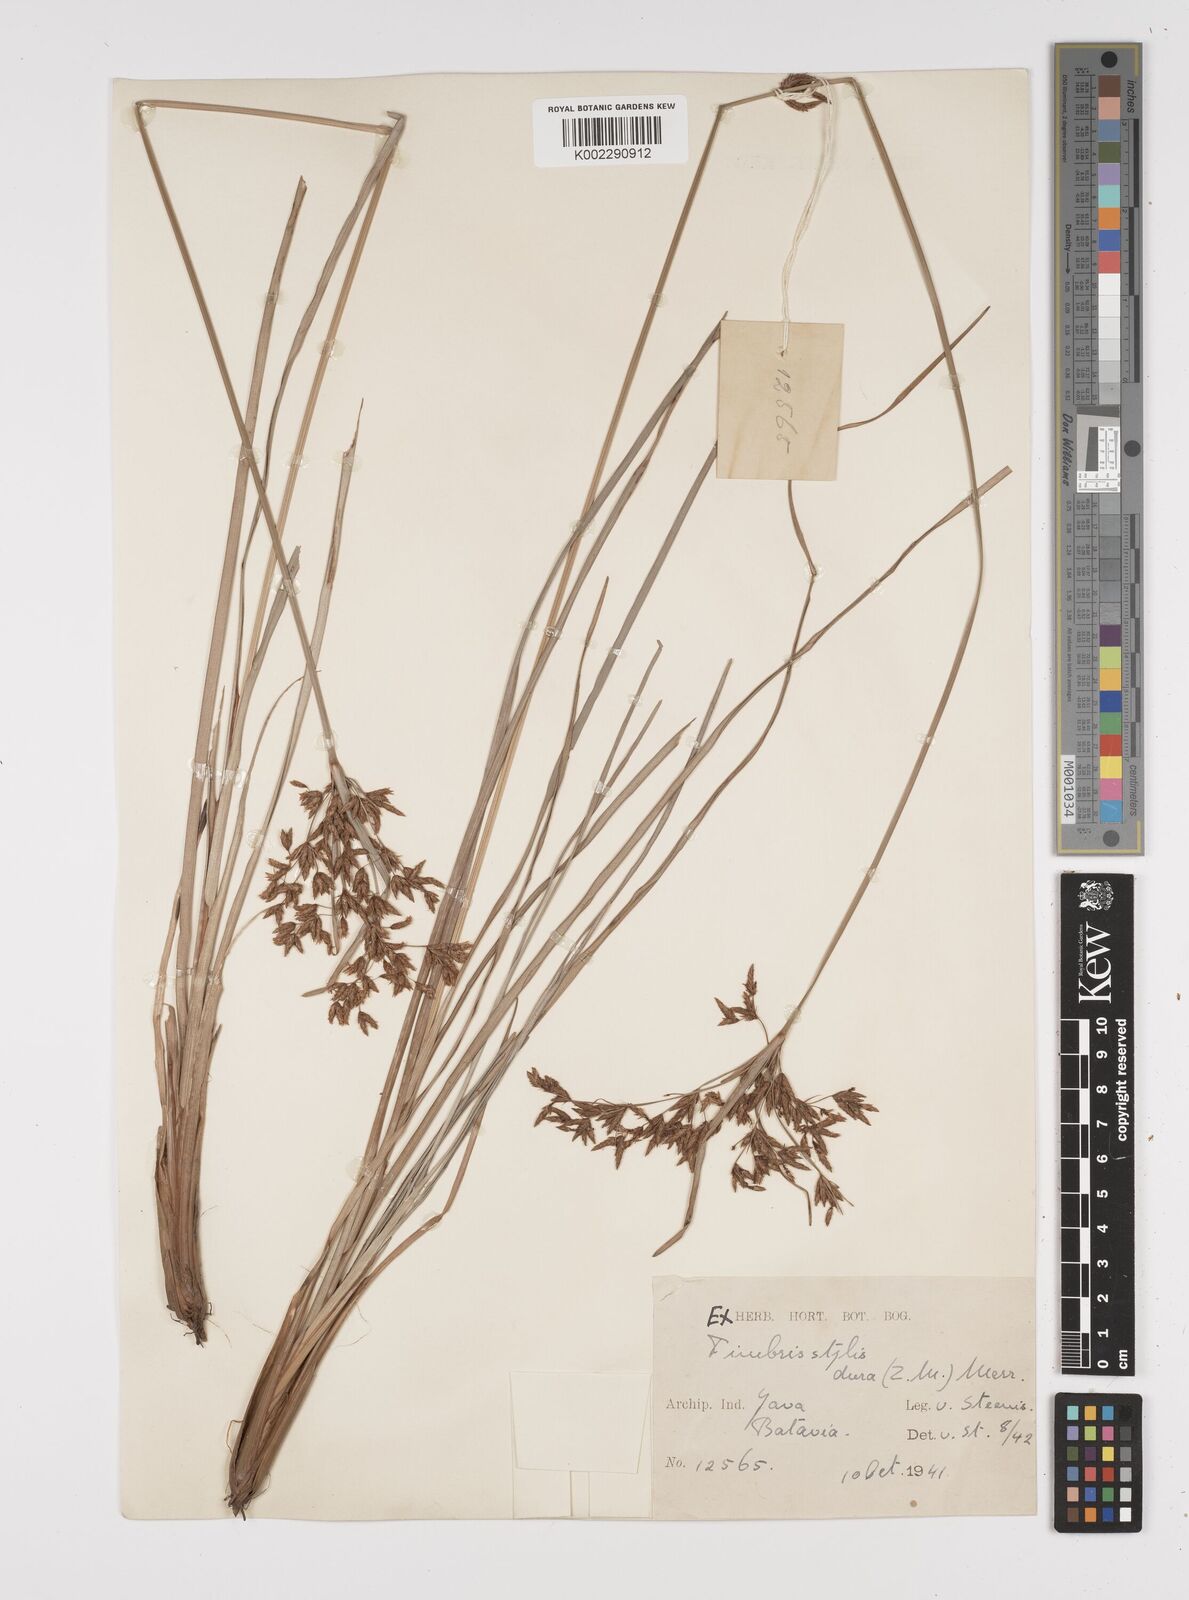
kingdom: Plantae
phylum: Tracheophyta
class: Liliopsida
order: Poales
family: Cyperaceae
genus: Fimbristylis
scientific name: Fimbristylis dura
